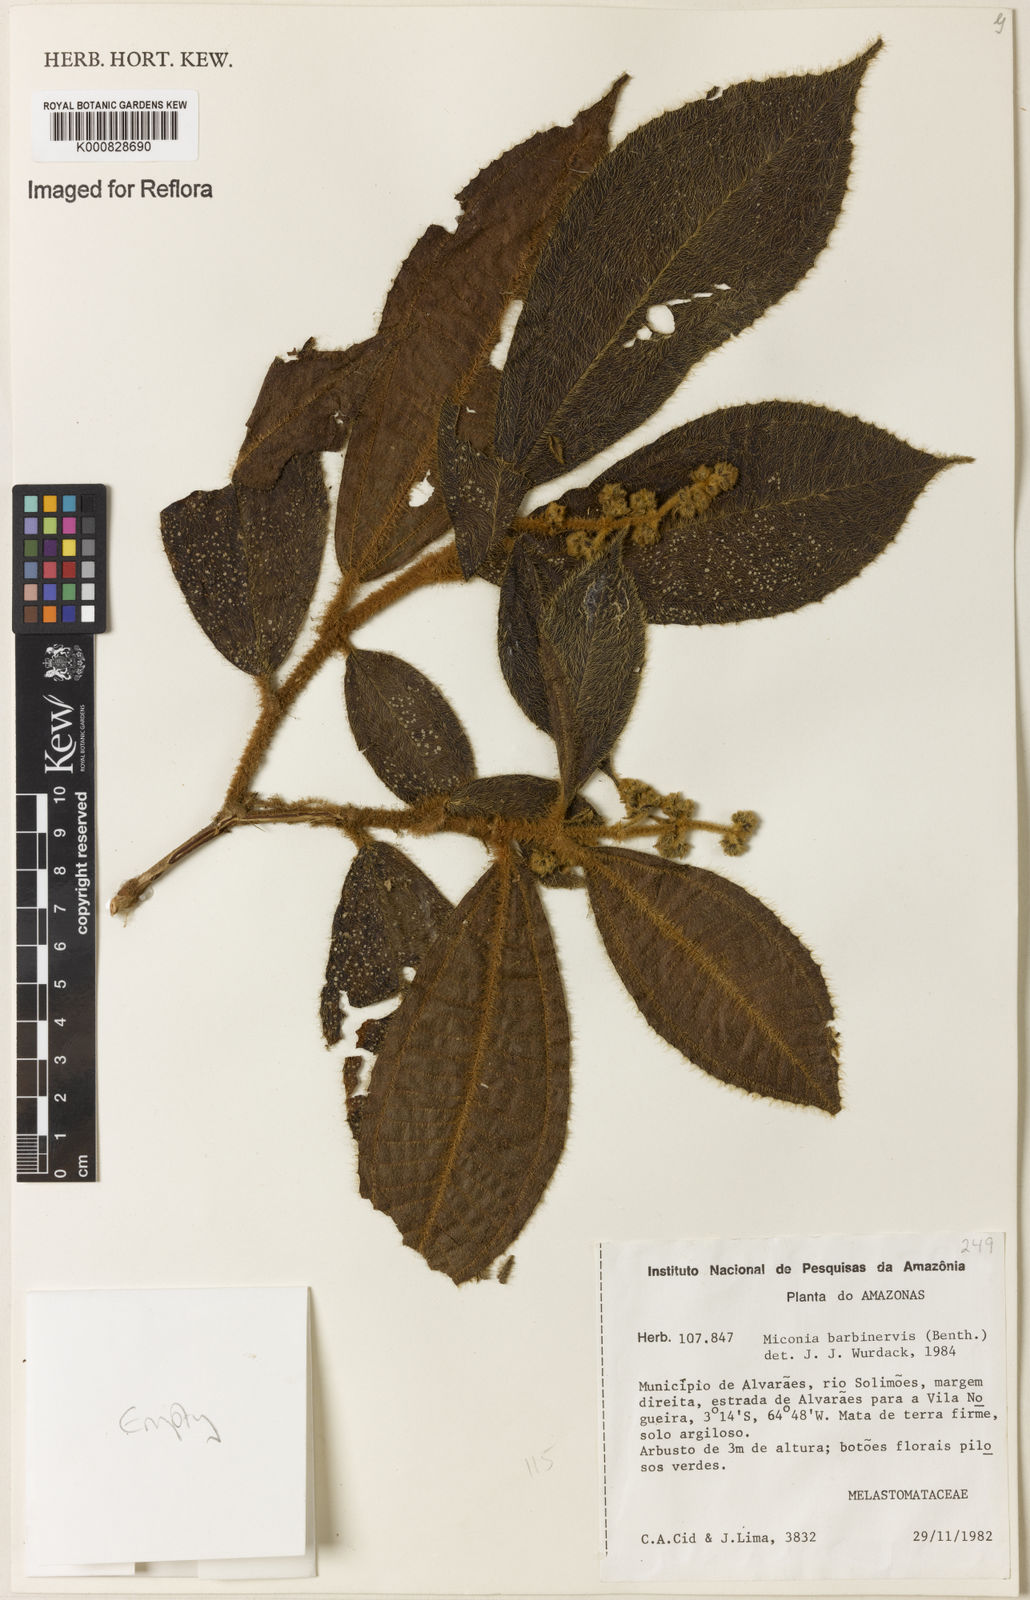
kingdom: Plantae
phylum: Tracheophyta
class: Magnoliopsida
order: Myrtales
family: Melastomataceae
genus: Miconia
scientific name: Miconia barbinervis
